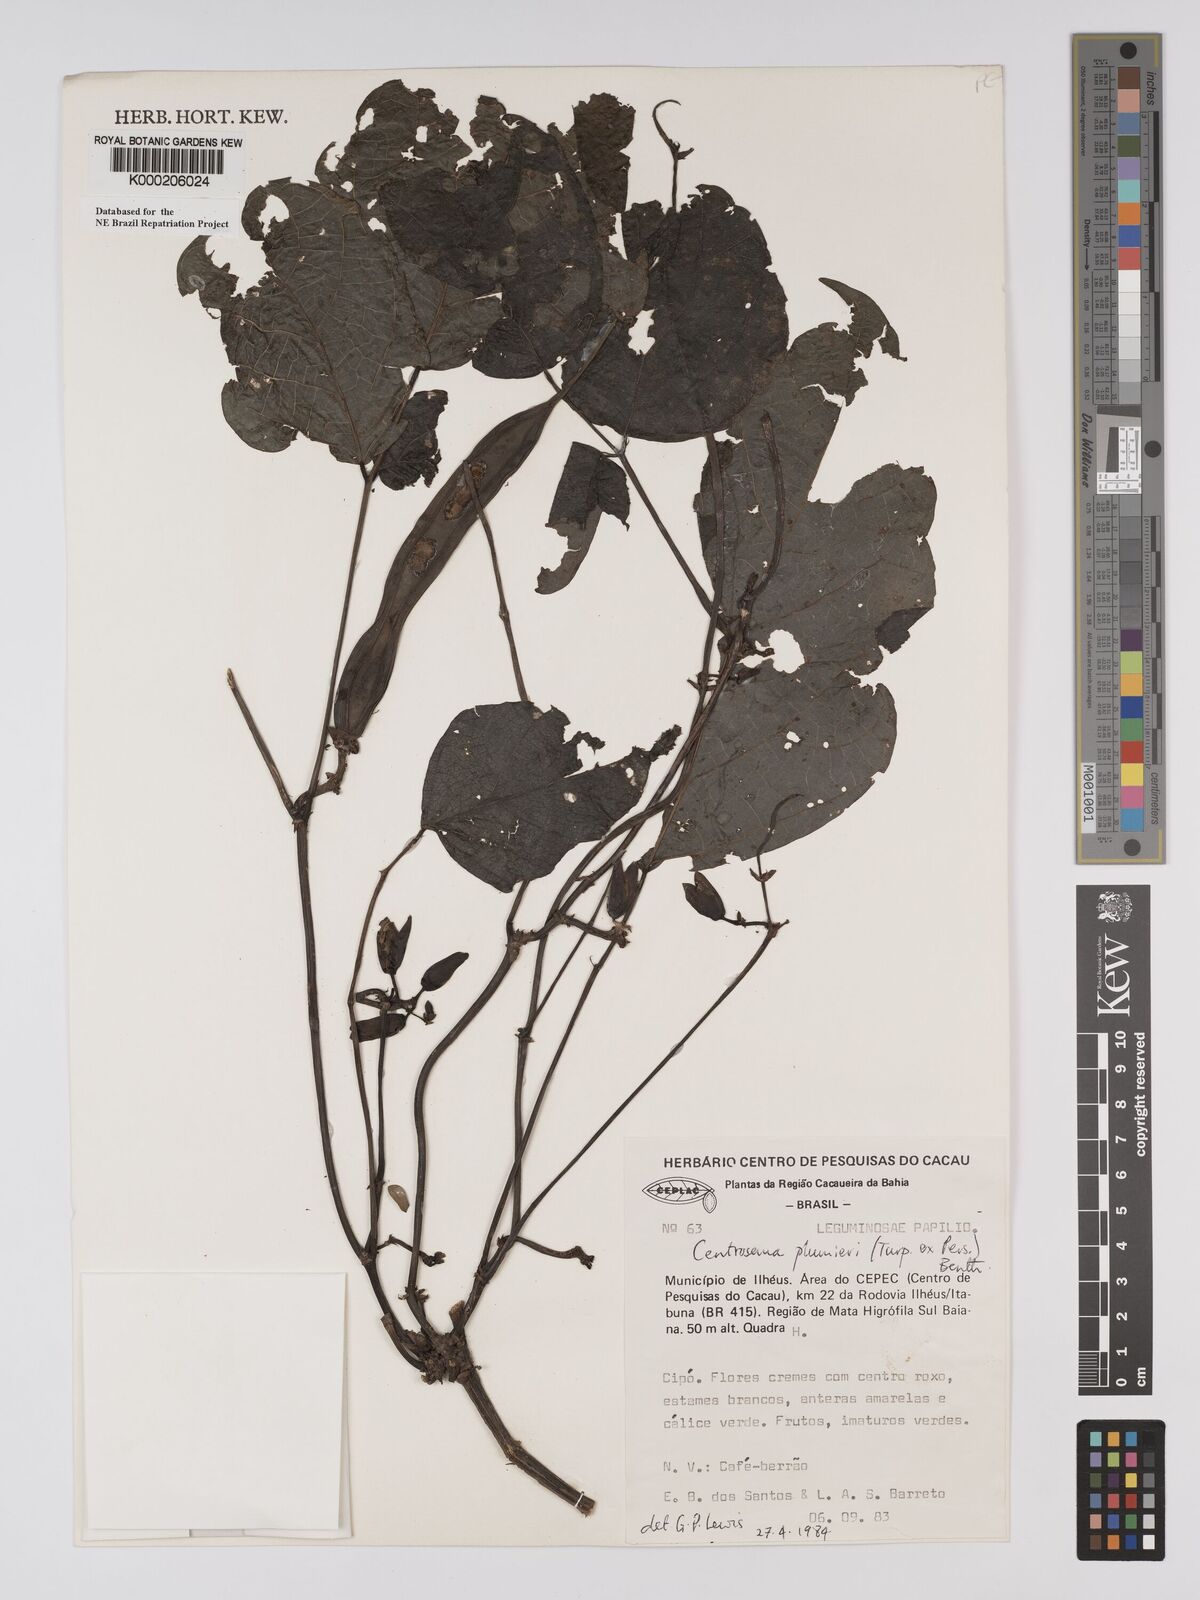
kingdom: Plantae
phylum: Tracheophyta
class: Magnoliopsida
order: Fabales
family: Fabaceae
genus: Centrosema
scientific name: Centrosema plumieri
